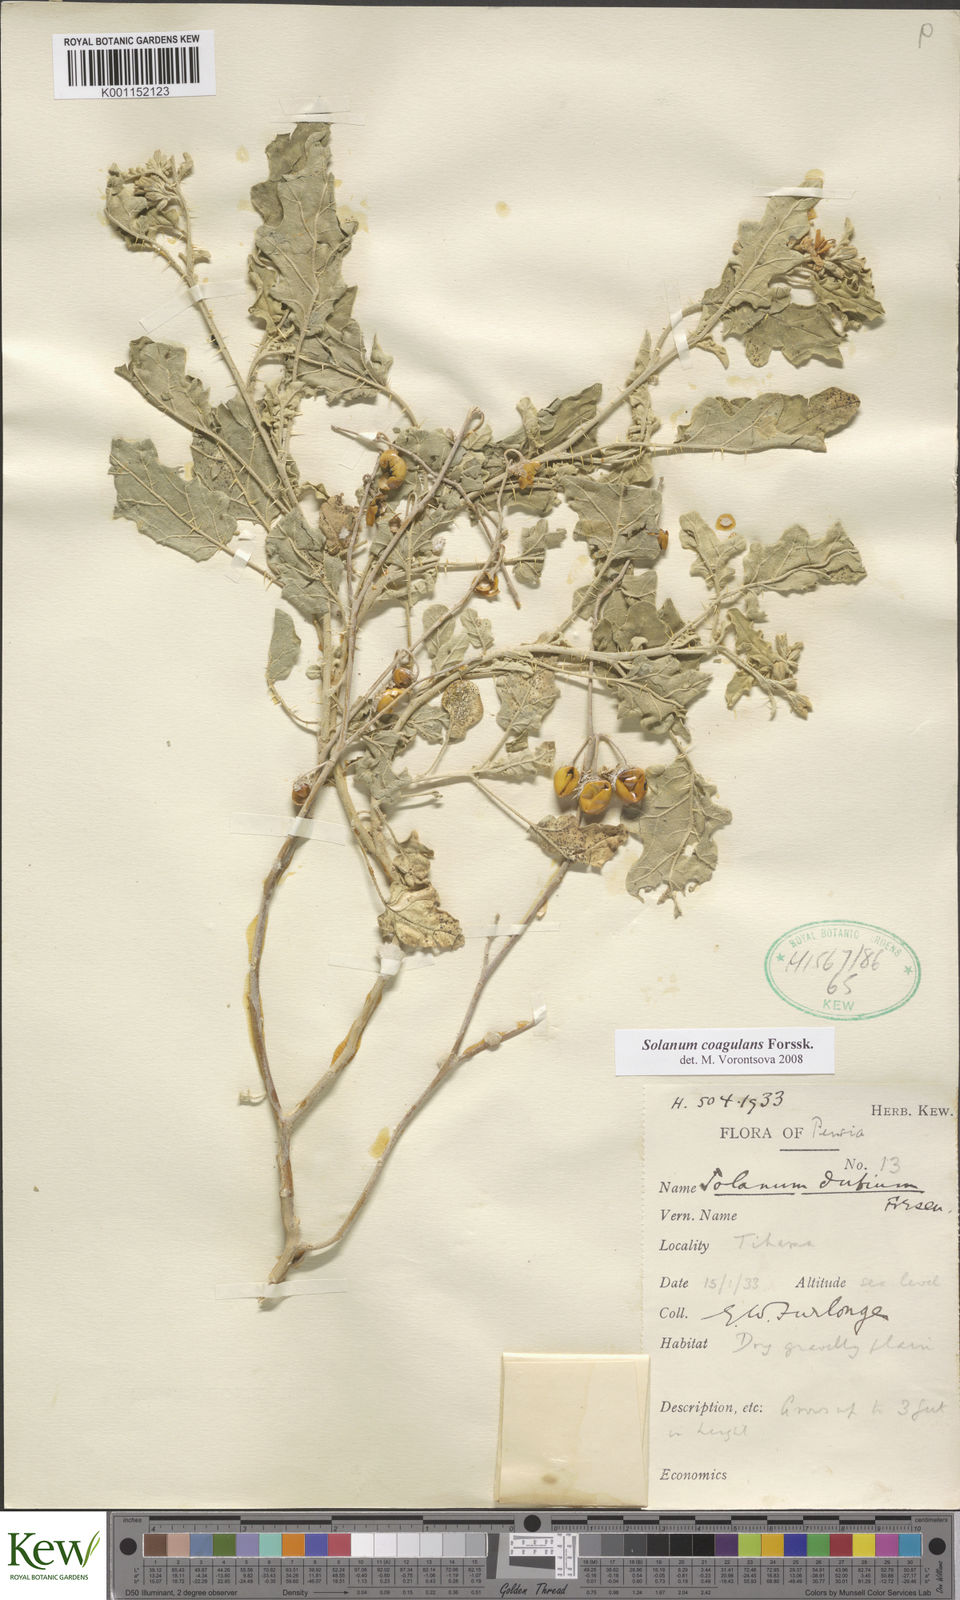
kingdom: Plantae
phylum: Tracheophyta
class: Magnoliopsida
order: Solanales
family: Solanaceae
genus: Solanum
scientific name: Solanum coagulans
